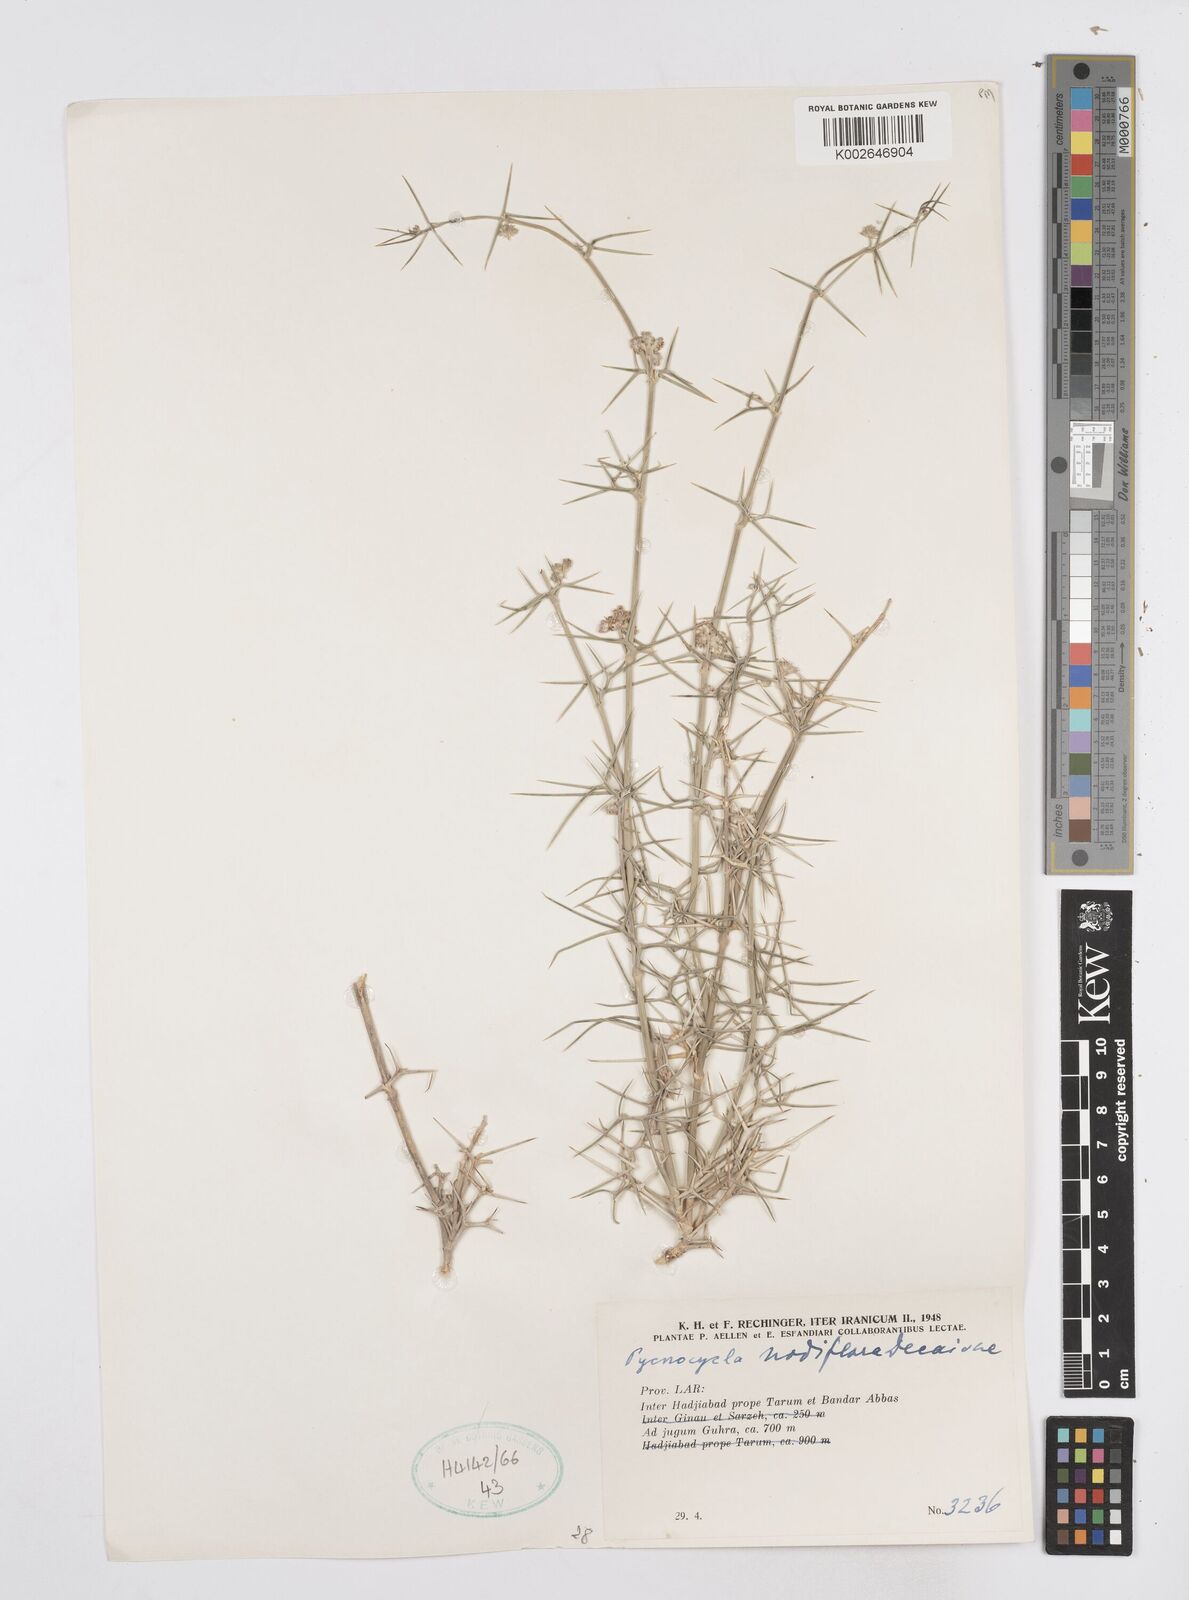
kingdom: Plantae
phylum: Tracheophyta
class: Magnoliopsida
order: Apiales
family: Apiaceae
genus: Pycnocycla
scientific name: Pycnocycla nodiflora
